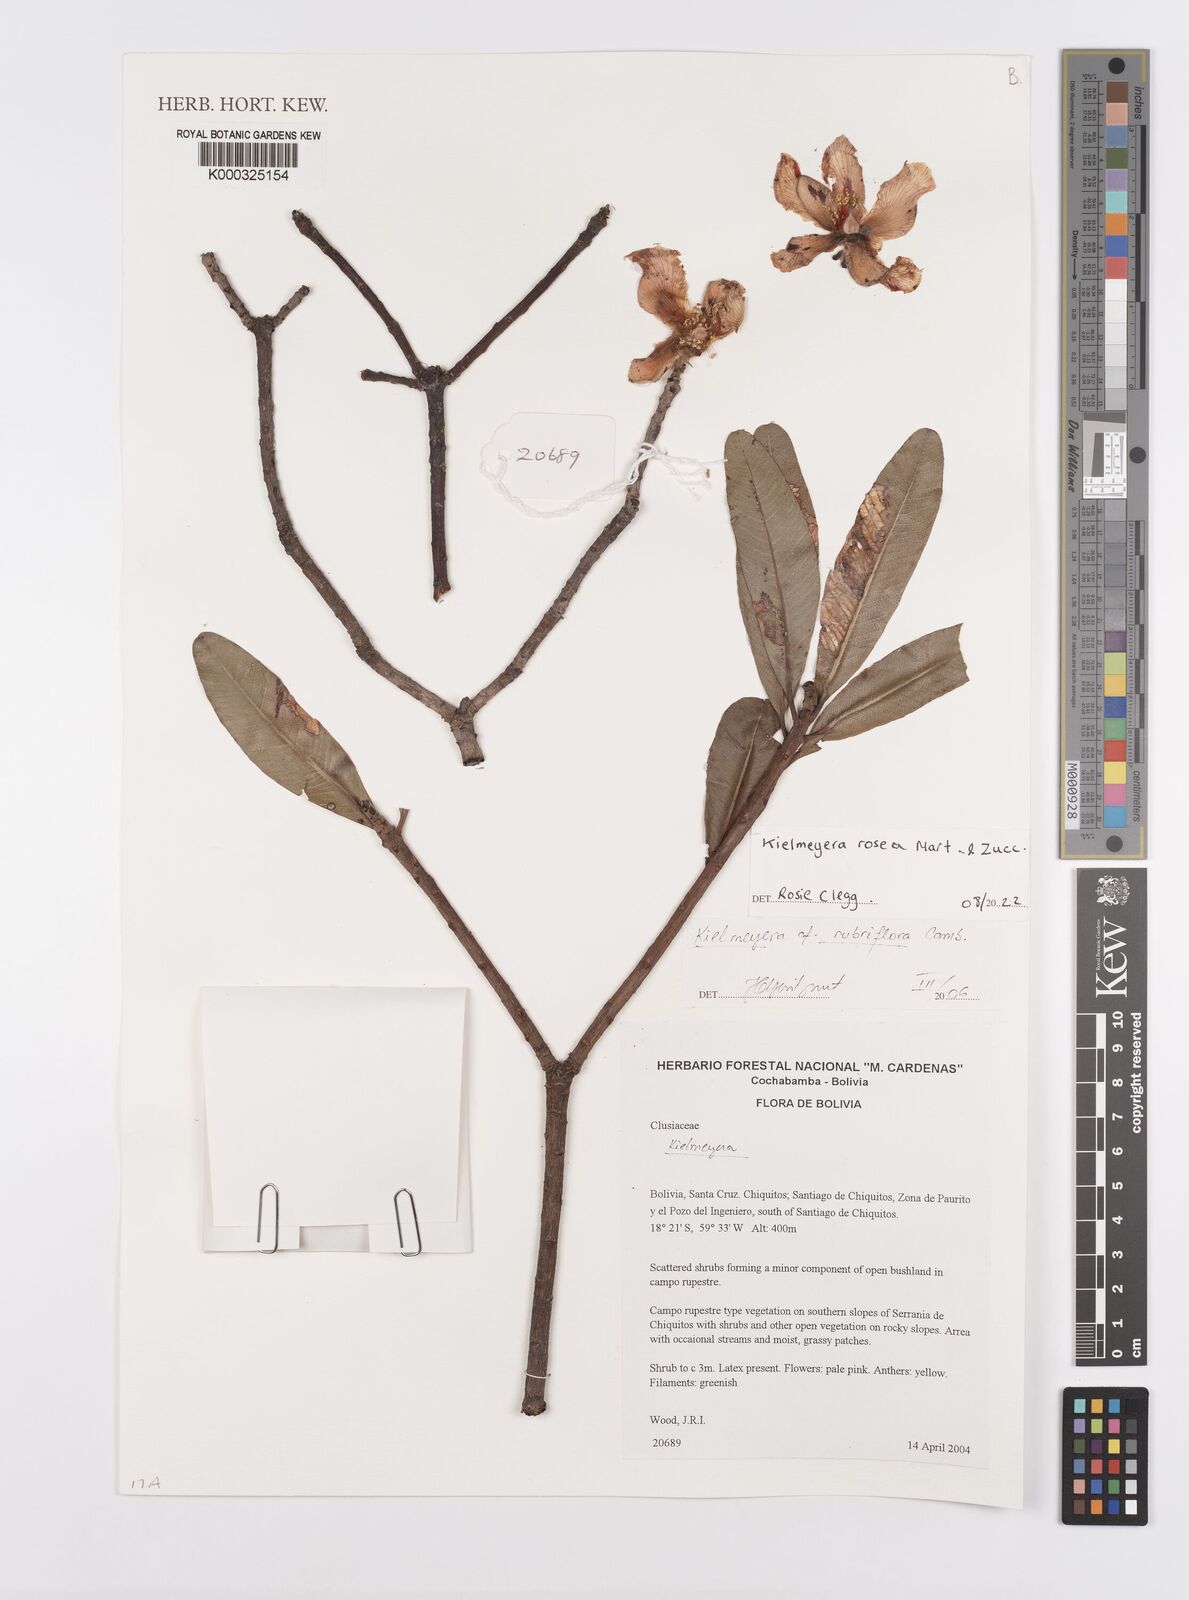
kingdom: Plantae
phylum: Tracheophyta
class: Magnoliopsida
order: Malpighiales
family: Calophyllaceae
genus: Kielmeyera
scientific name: Kielmeyera rubriflora
